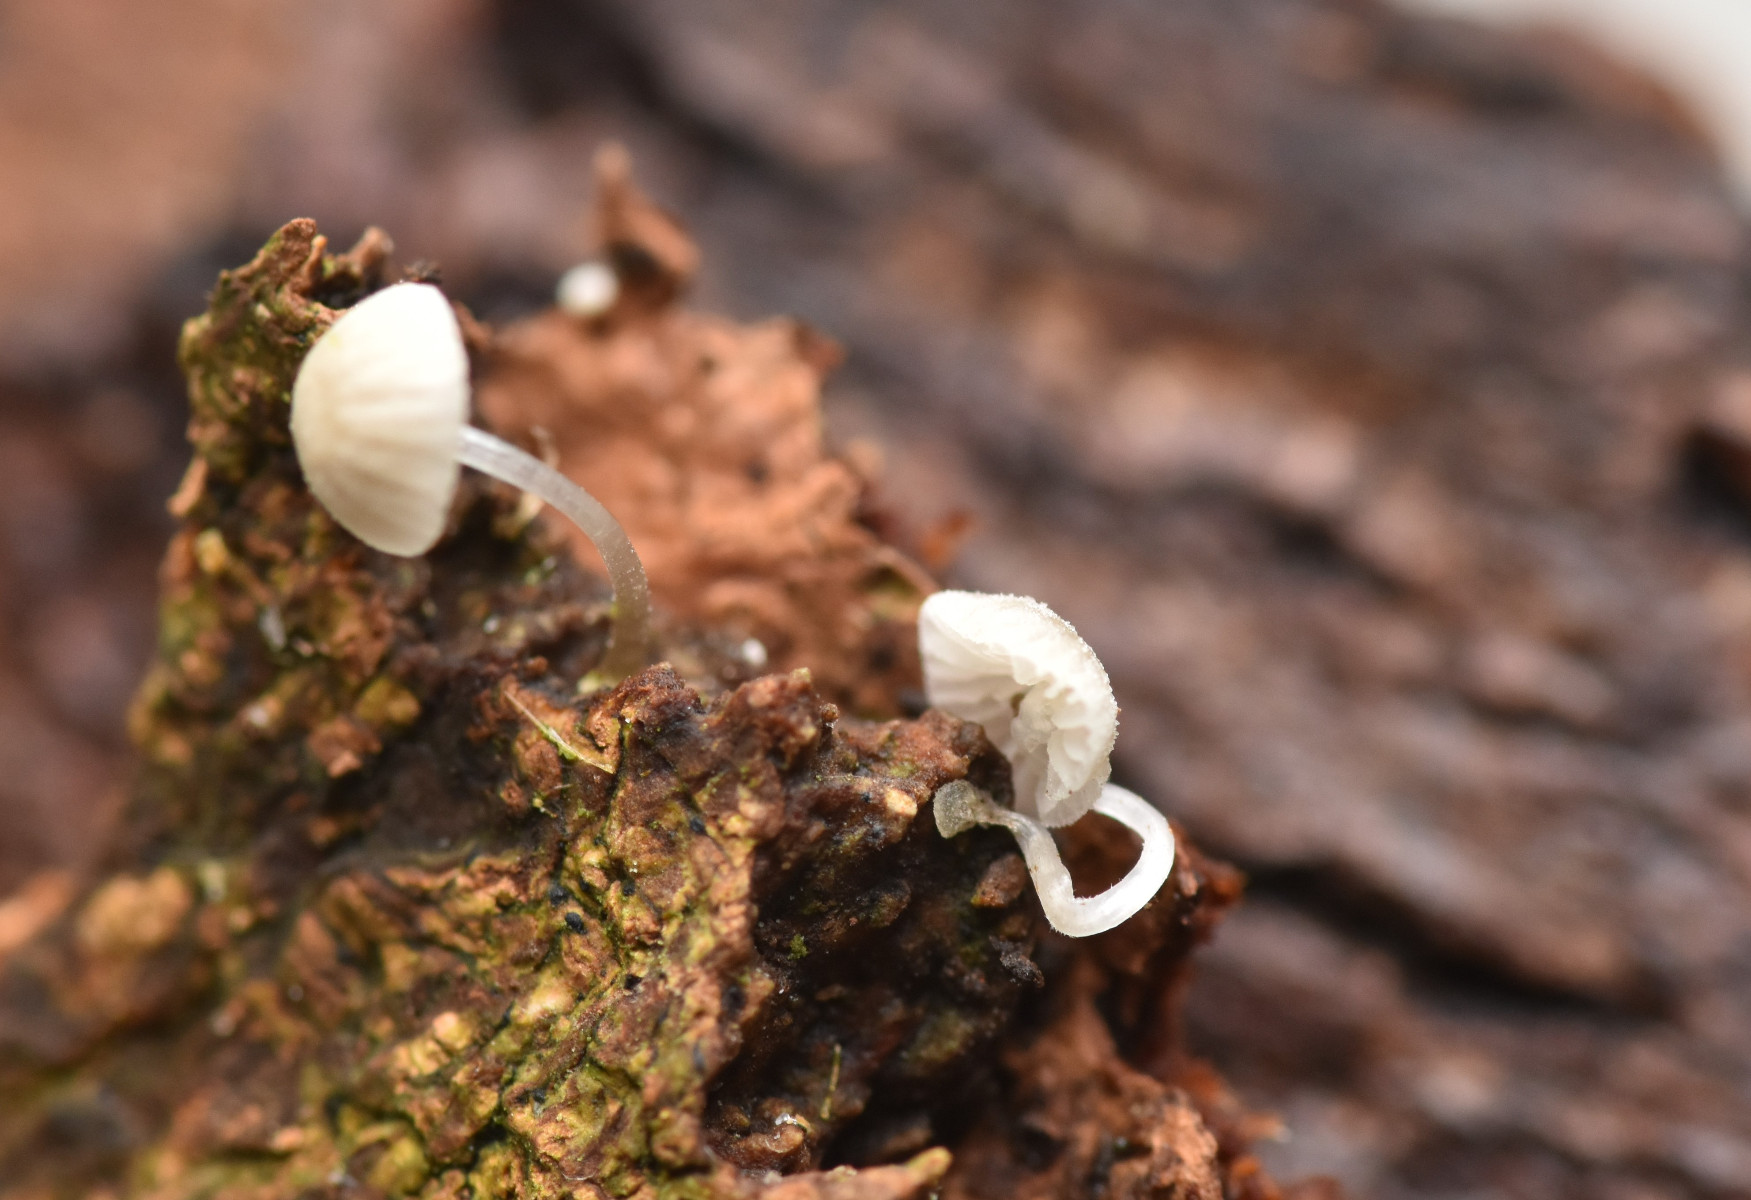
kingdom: Fungi
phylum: Basidiomycota
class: Agaricomycetes
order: Agaricales
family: Mycenaceae
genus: Mycena
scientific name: Mycena tenerrima
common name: pudret huesvamp
